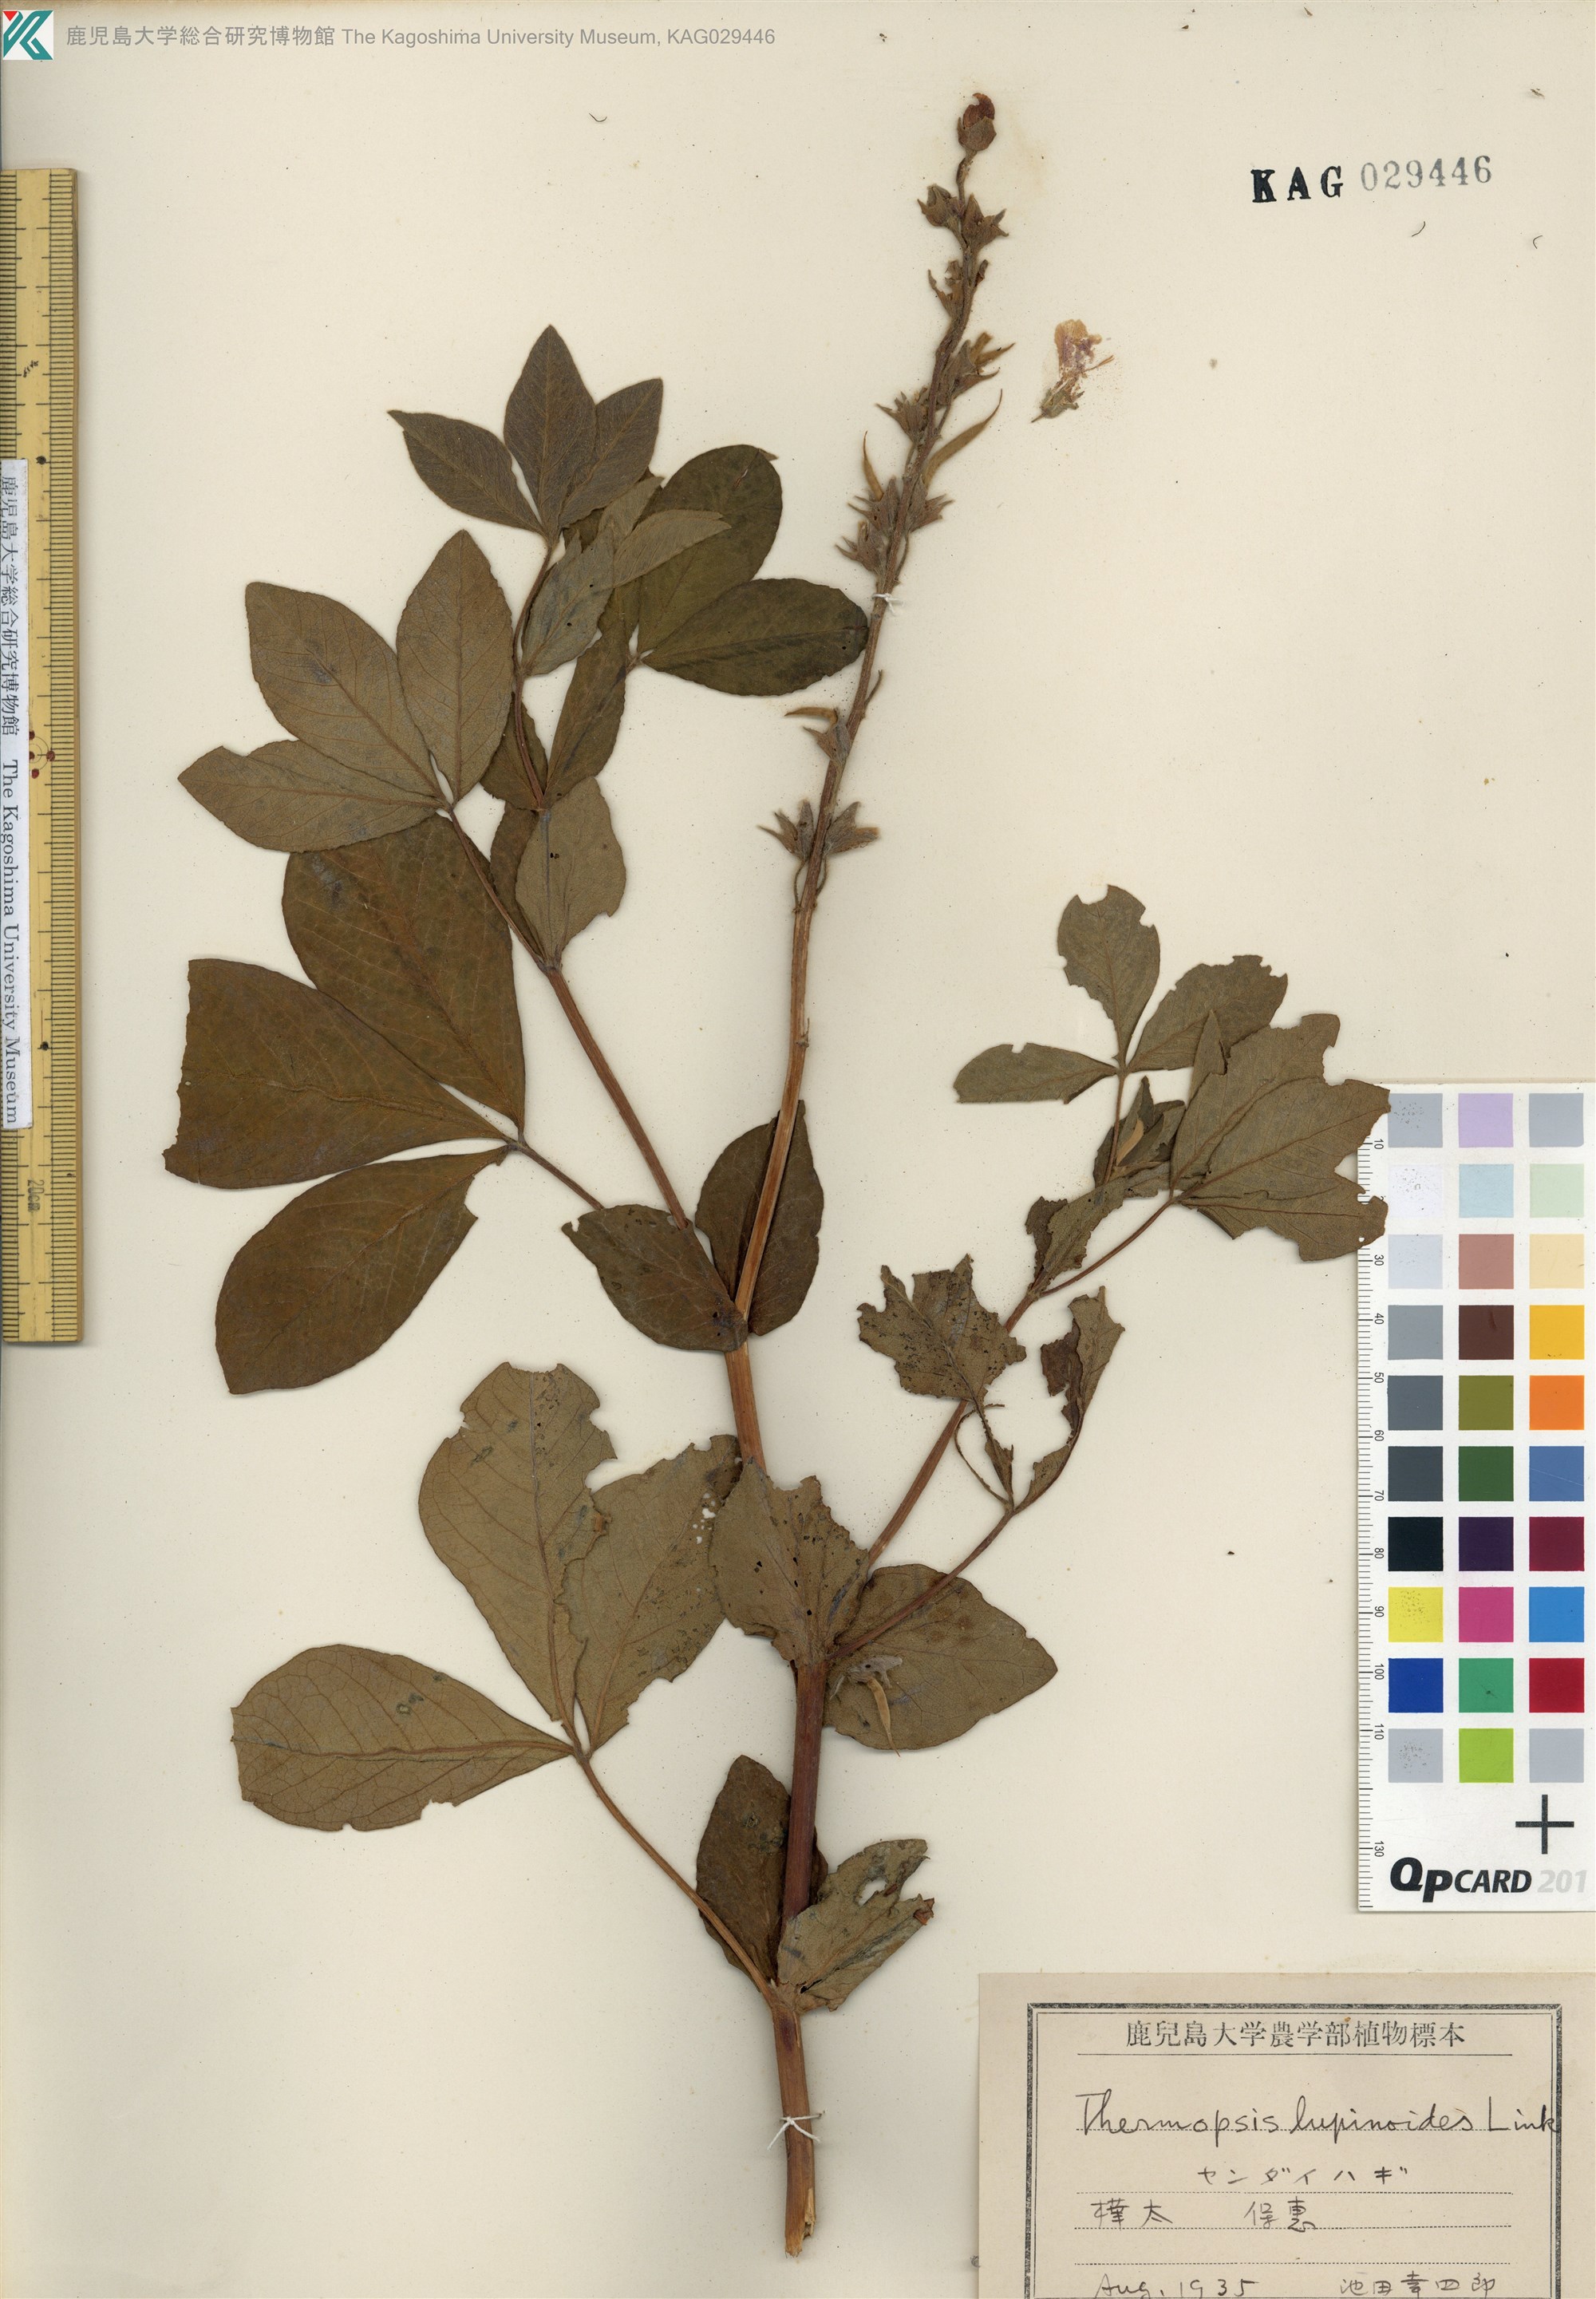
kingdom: Plantae
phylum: Tracheophyta
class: Magnoliopsida
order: Fabales
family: Fabaceae
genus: Thermopsis
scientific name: Thermopsis lanceolata
